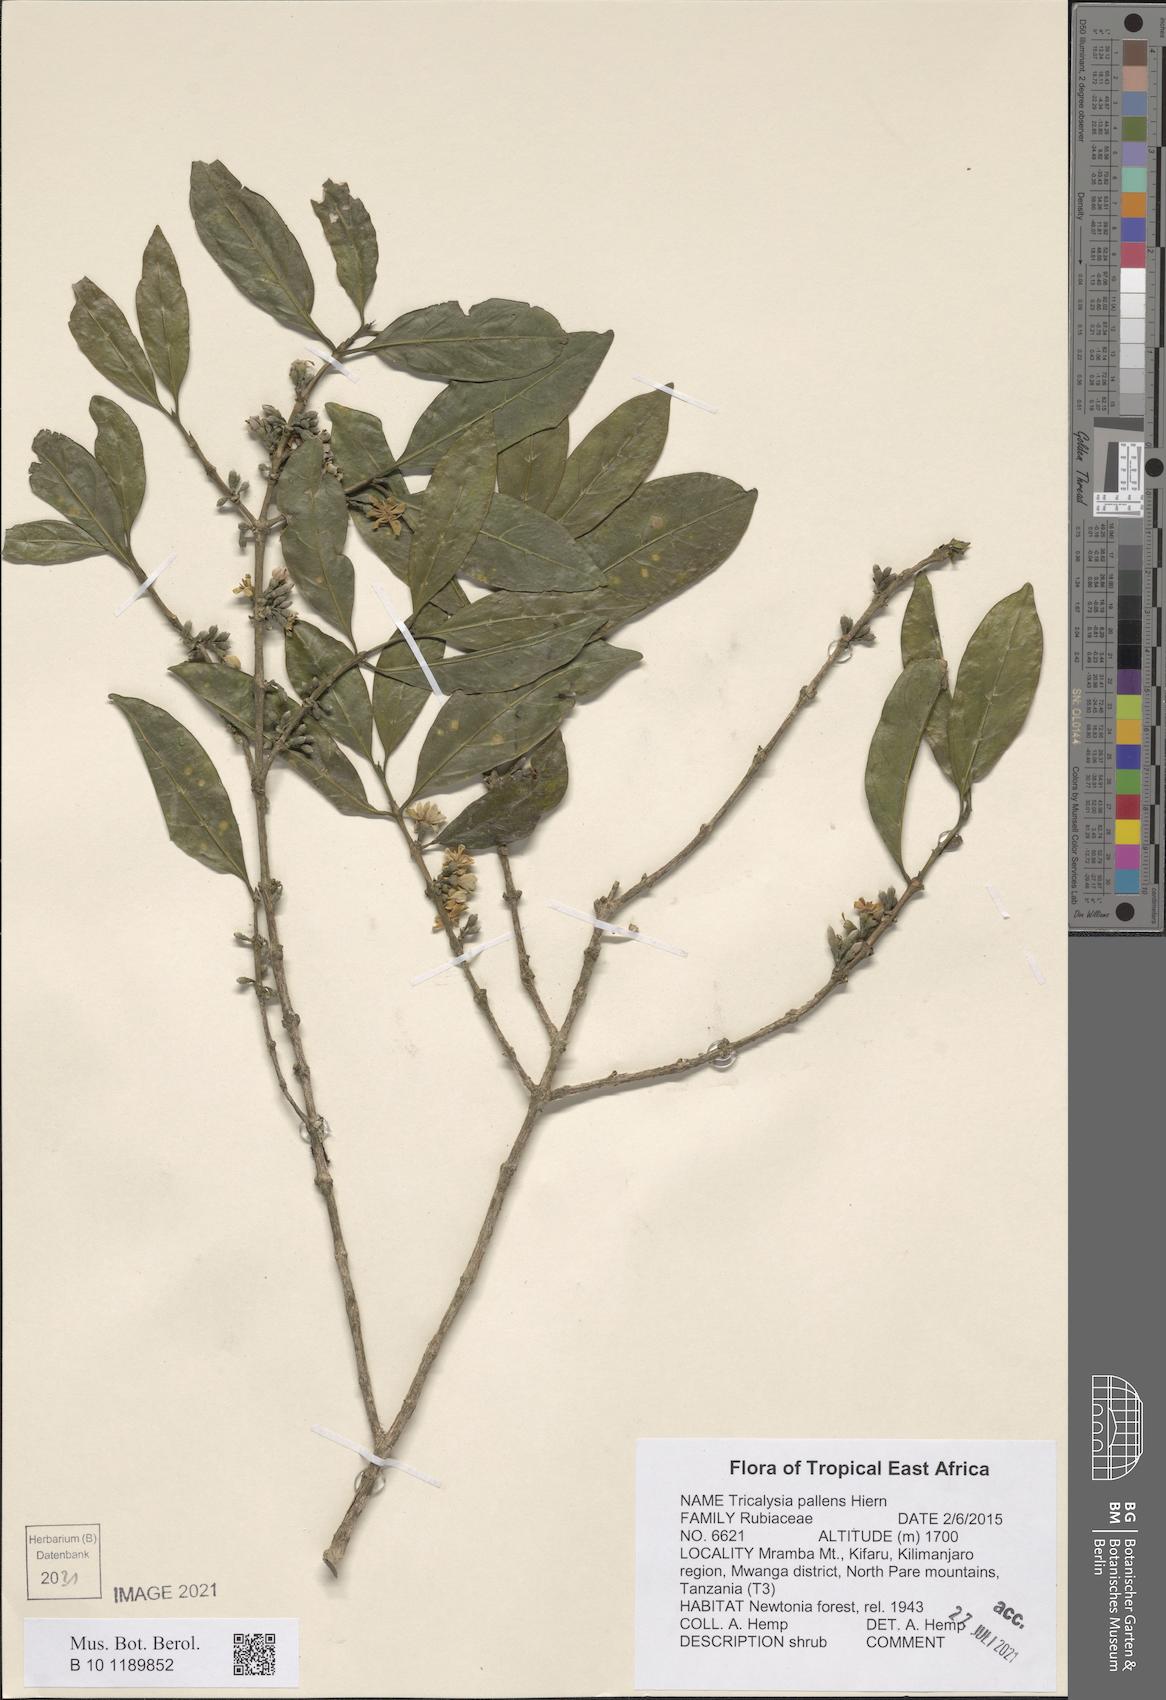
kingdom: Plantae
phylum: Tracheophyta
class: Magnoliopsida
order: Gentianales
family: Rubiaceae
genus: Tricalysia
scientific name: Tricalysia pallens
